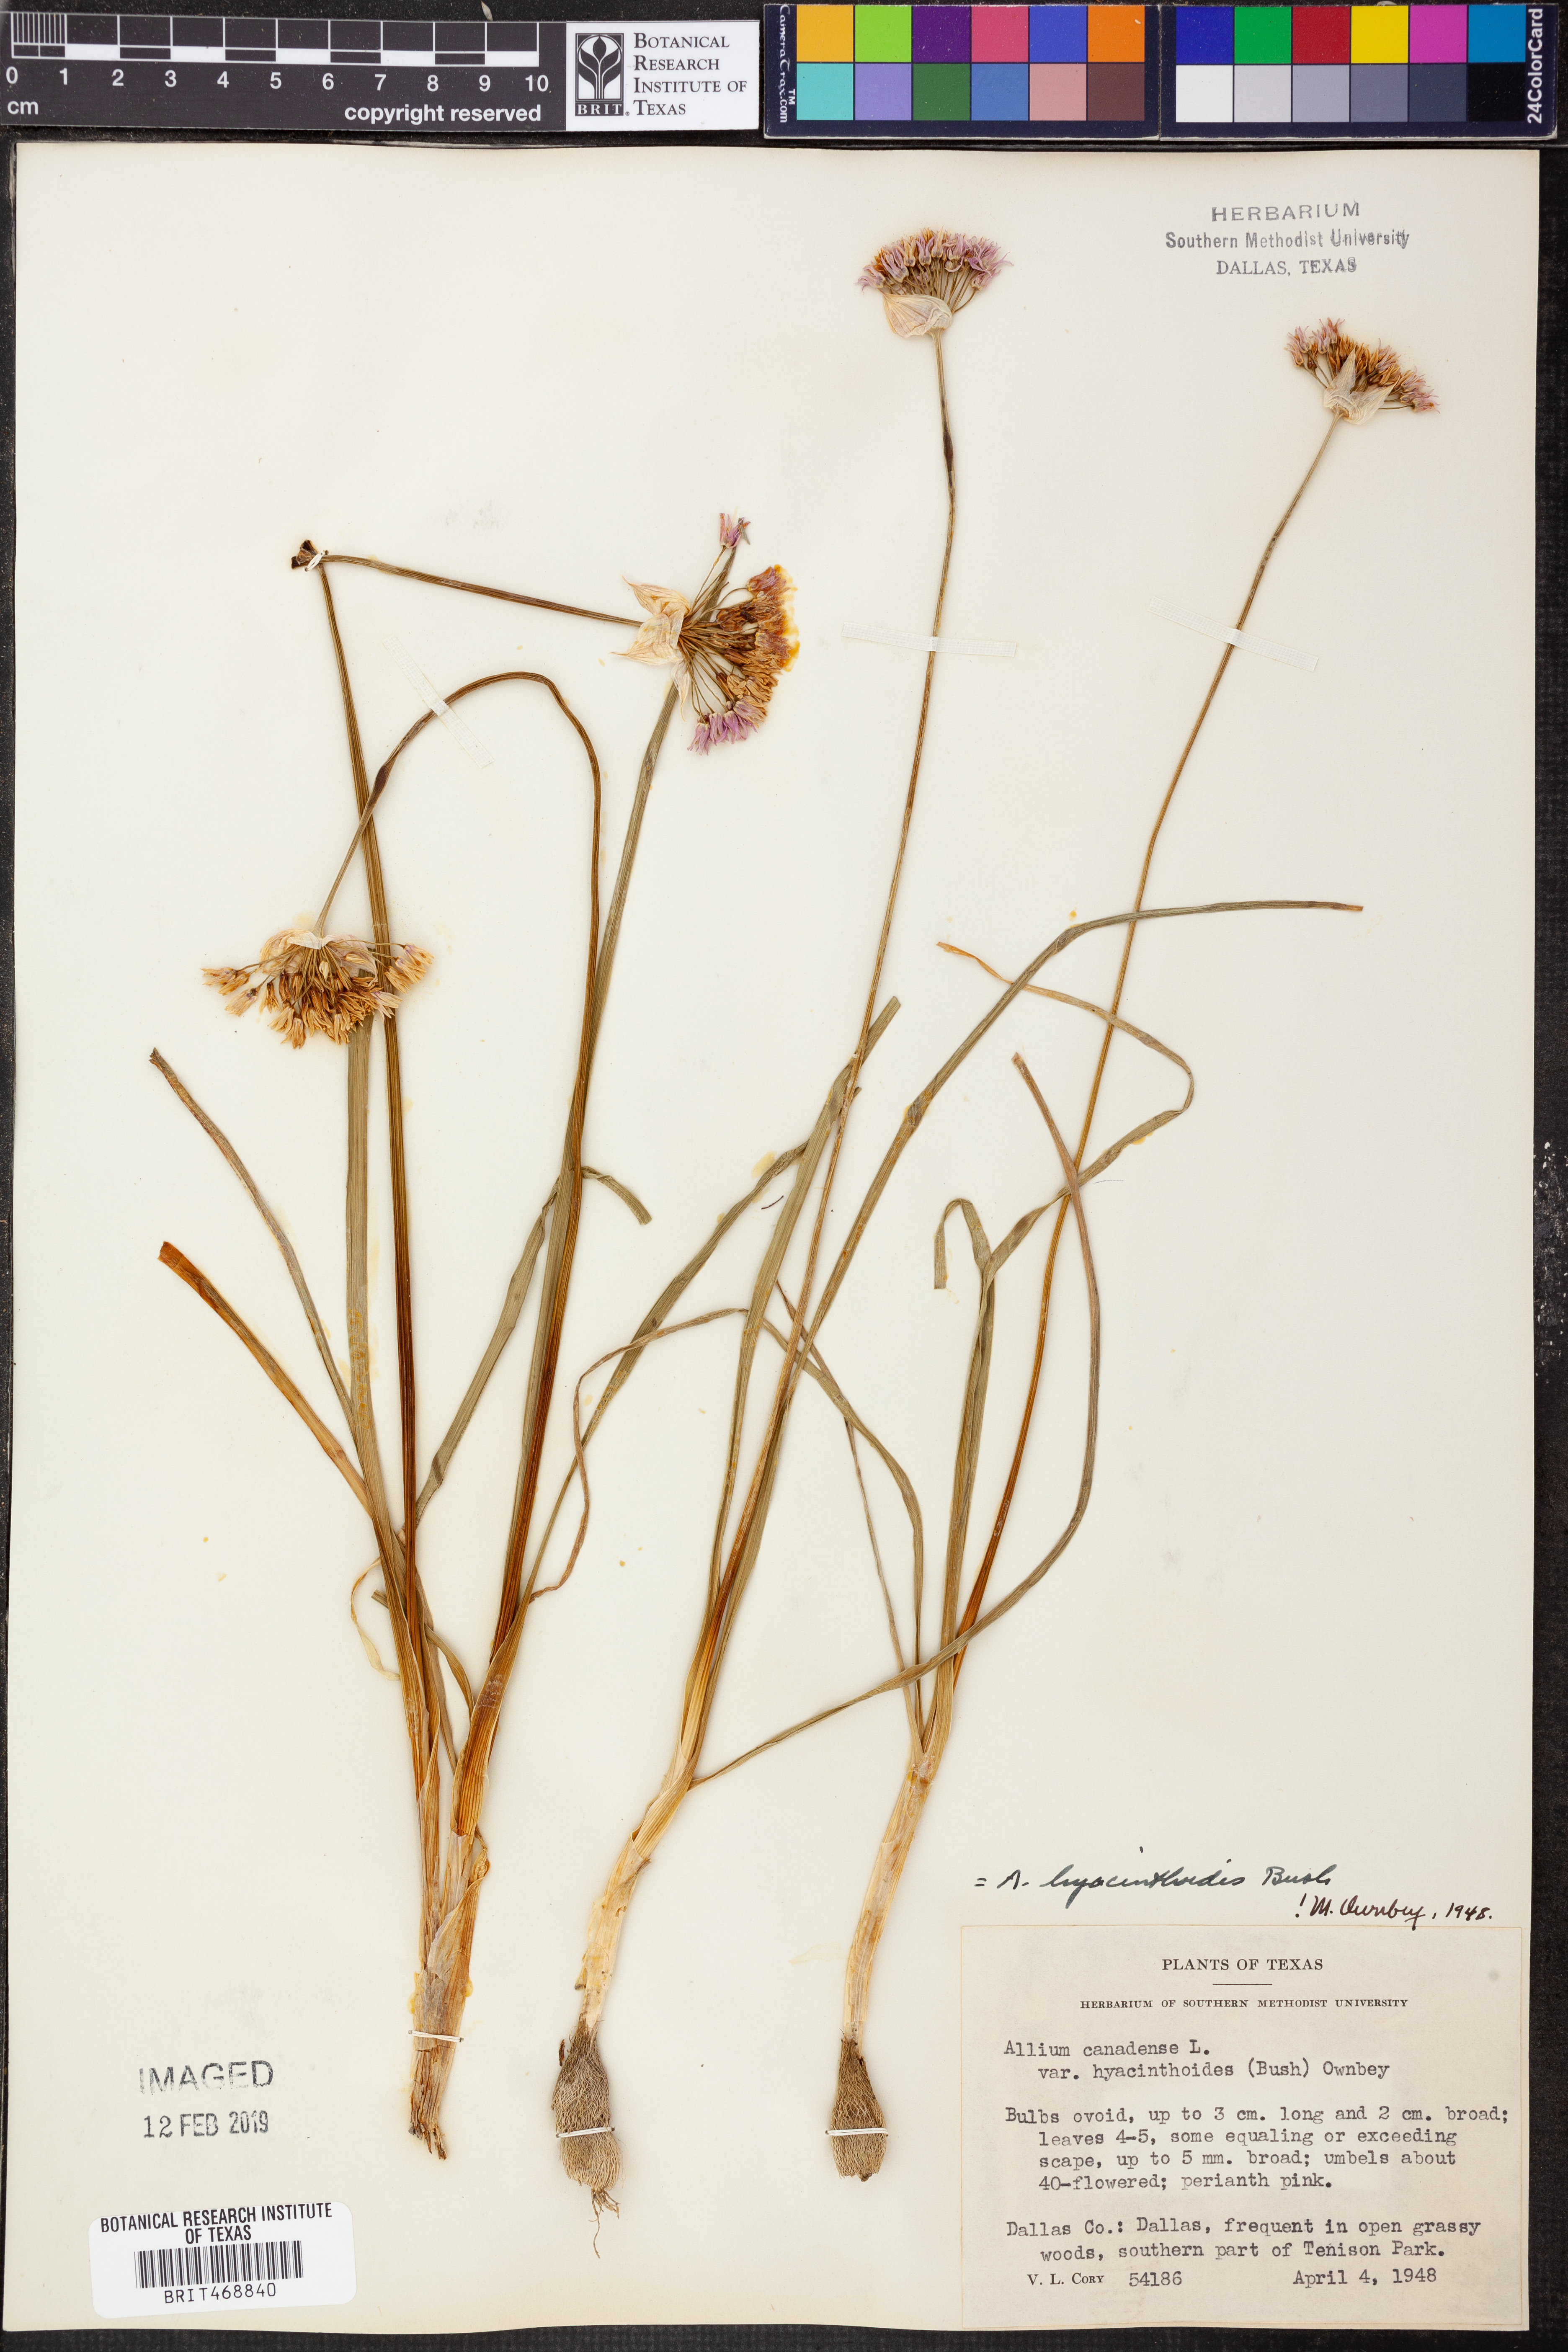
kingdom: Plantae
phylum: Tracheophyta
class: Liliopsida
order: Asparagales
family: Amaryllidaceae
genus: Allium
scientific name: Allium canadense
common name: Meadow garlic
